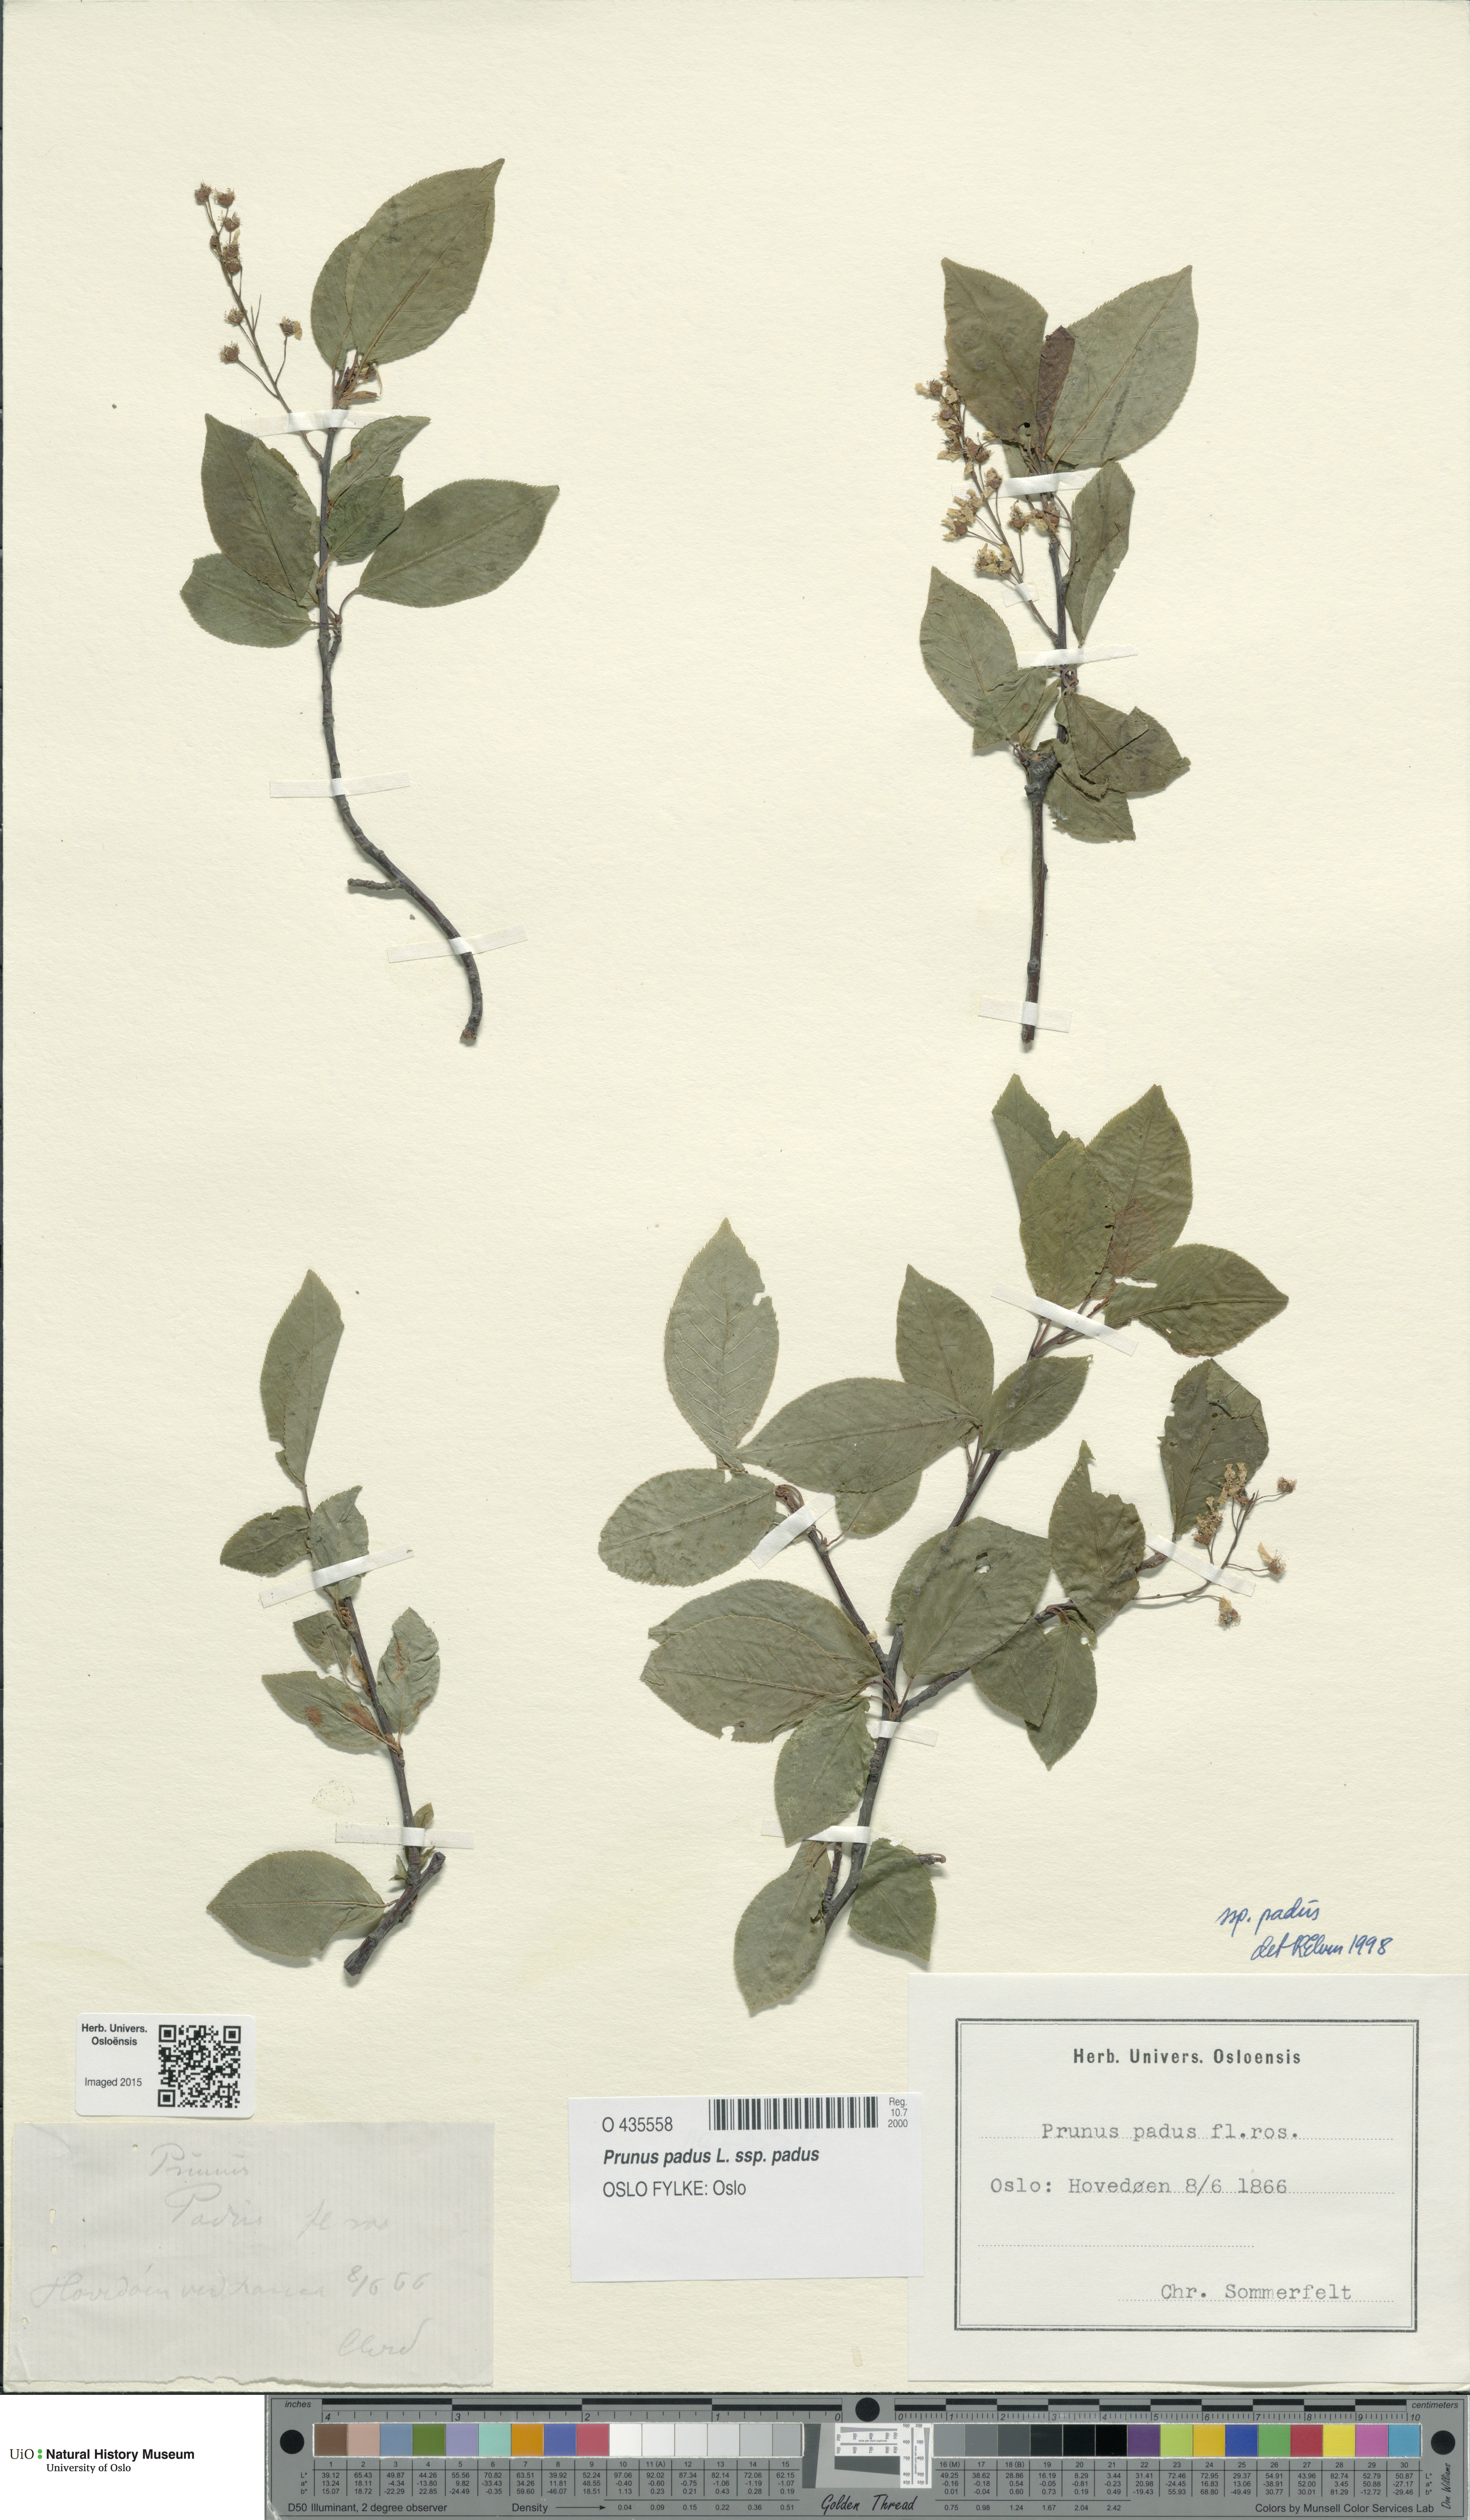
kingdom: Plantae
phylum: Tracheophyta
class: Magnoliopsida
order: Rosales
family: Rosaceae
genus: Prunus
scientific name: Prunus padus
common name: Bird cherry
